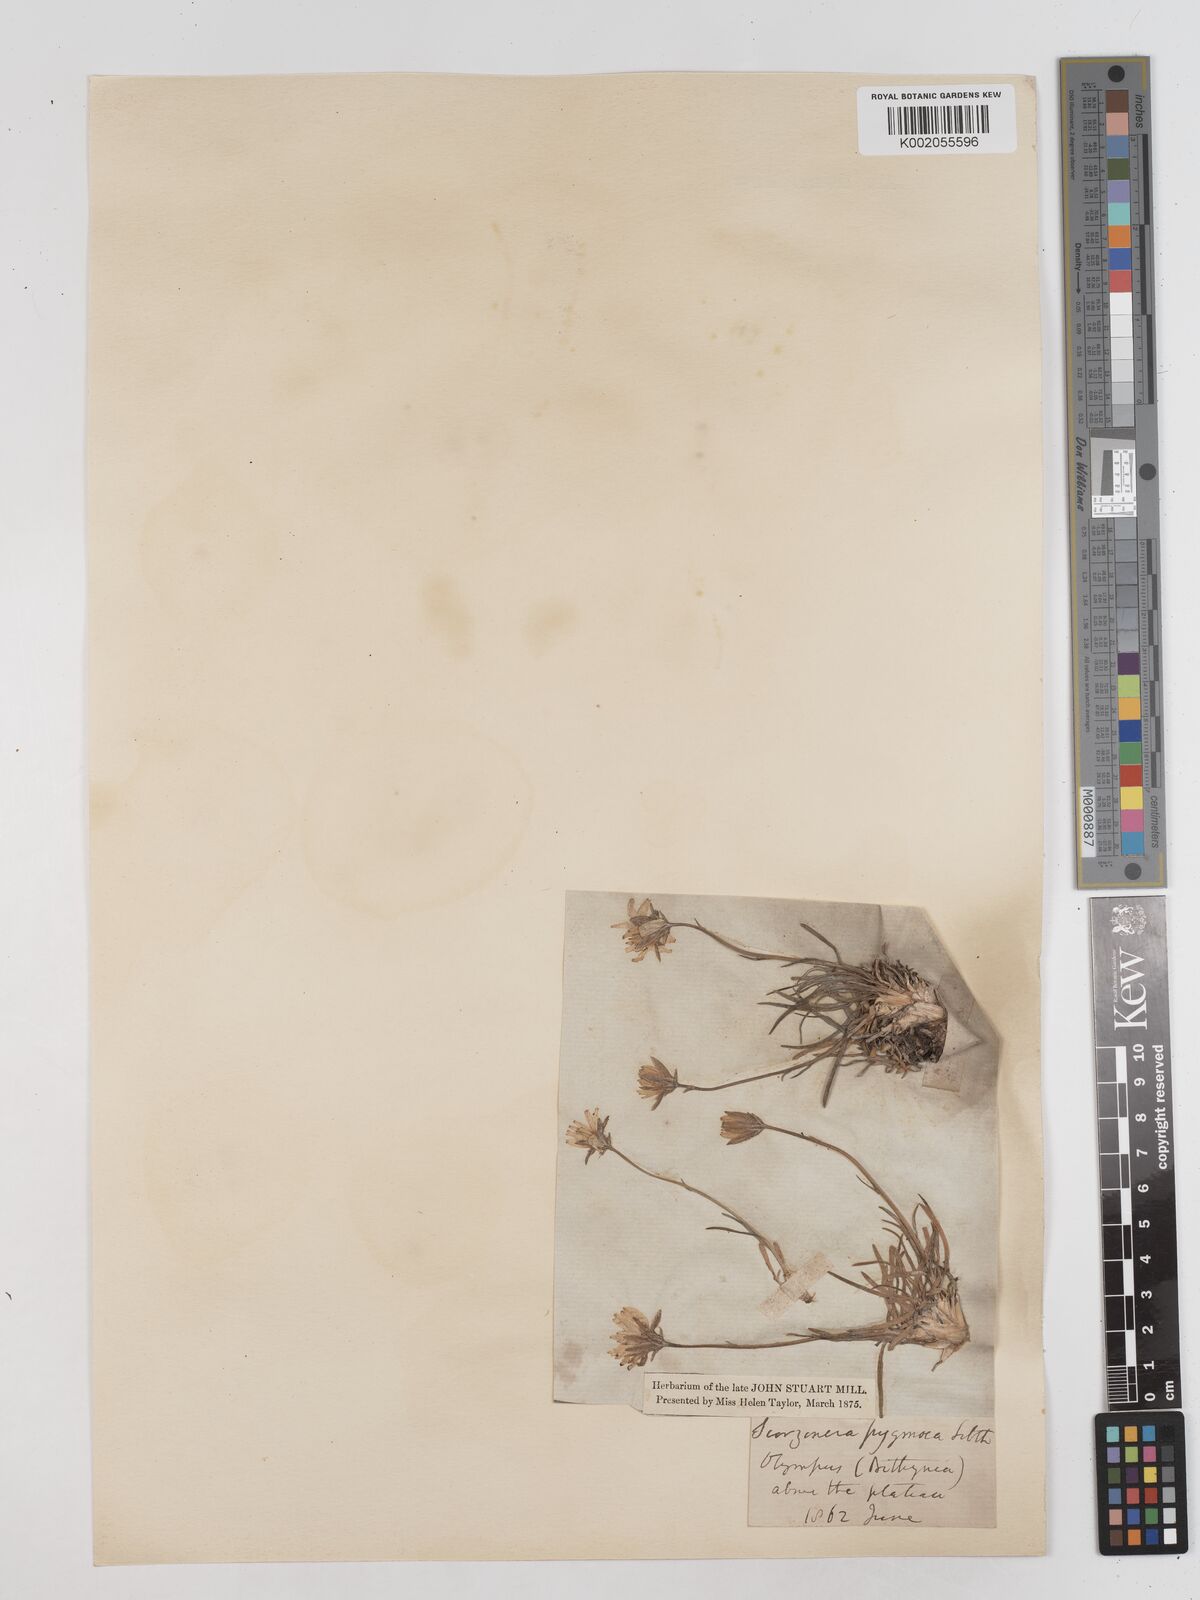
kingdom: Plantae
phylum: Tracheophyta
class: Magnoliopsida
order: Asterales
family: Asteraceae
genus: Scorzonera
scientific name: Scorzonera
